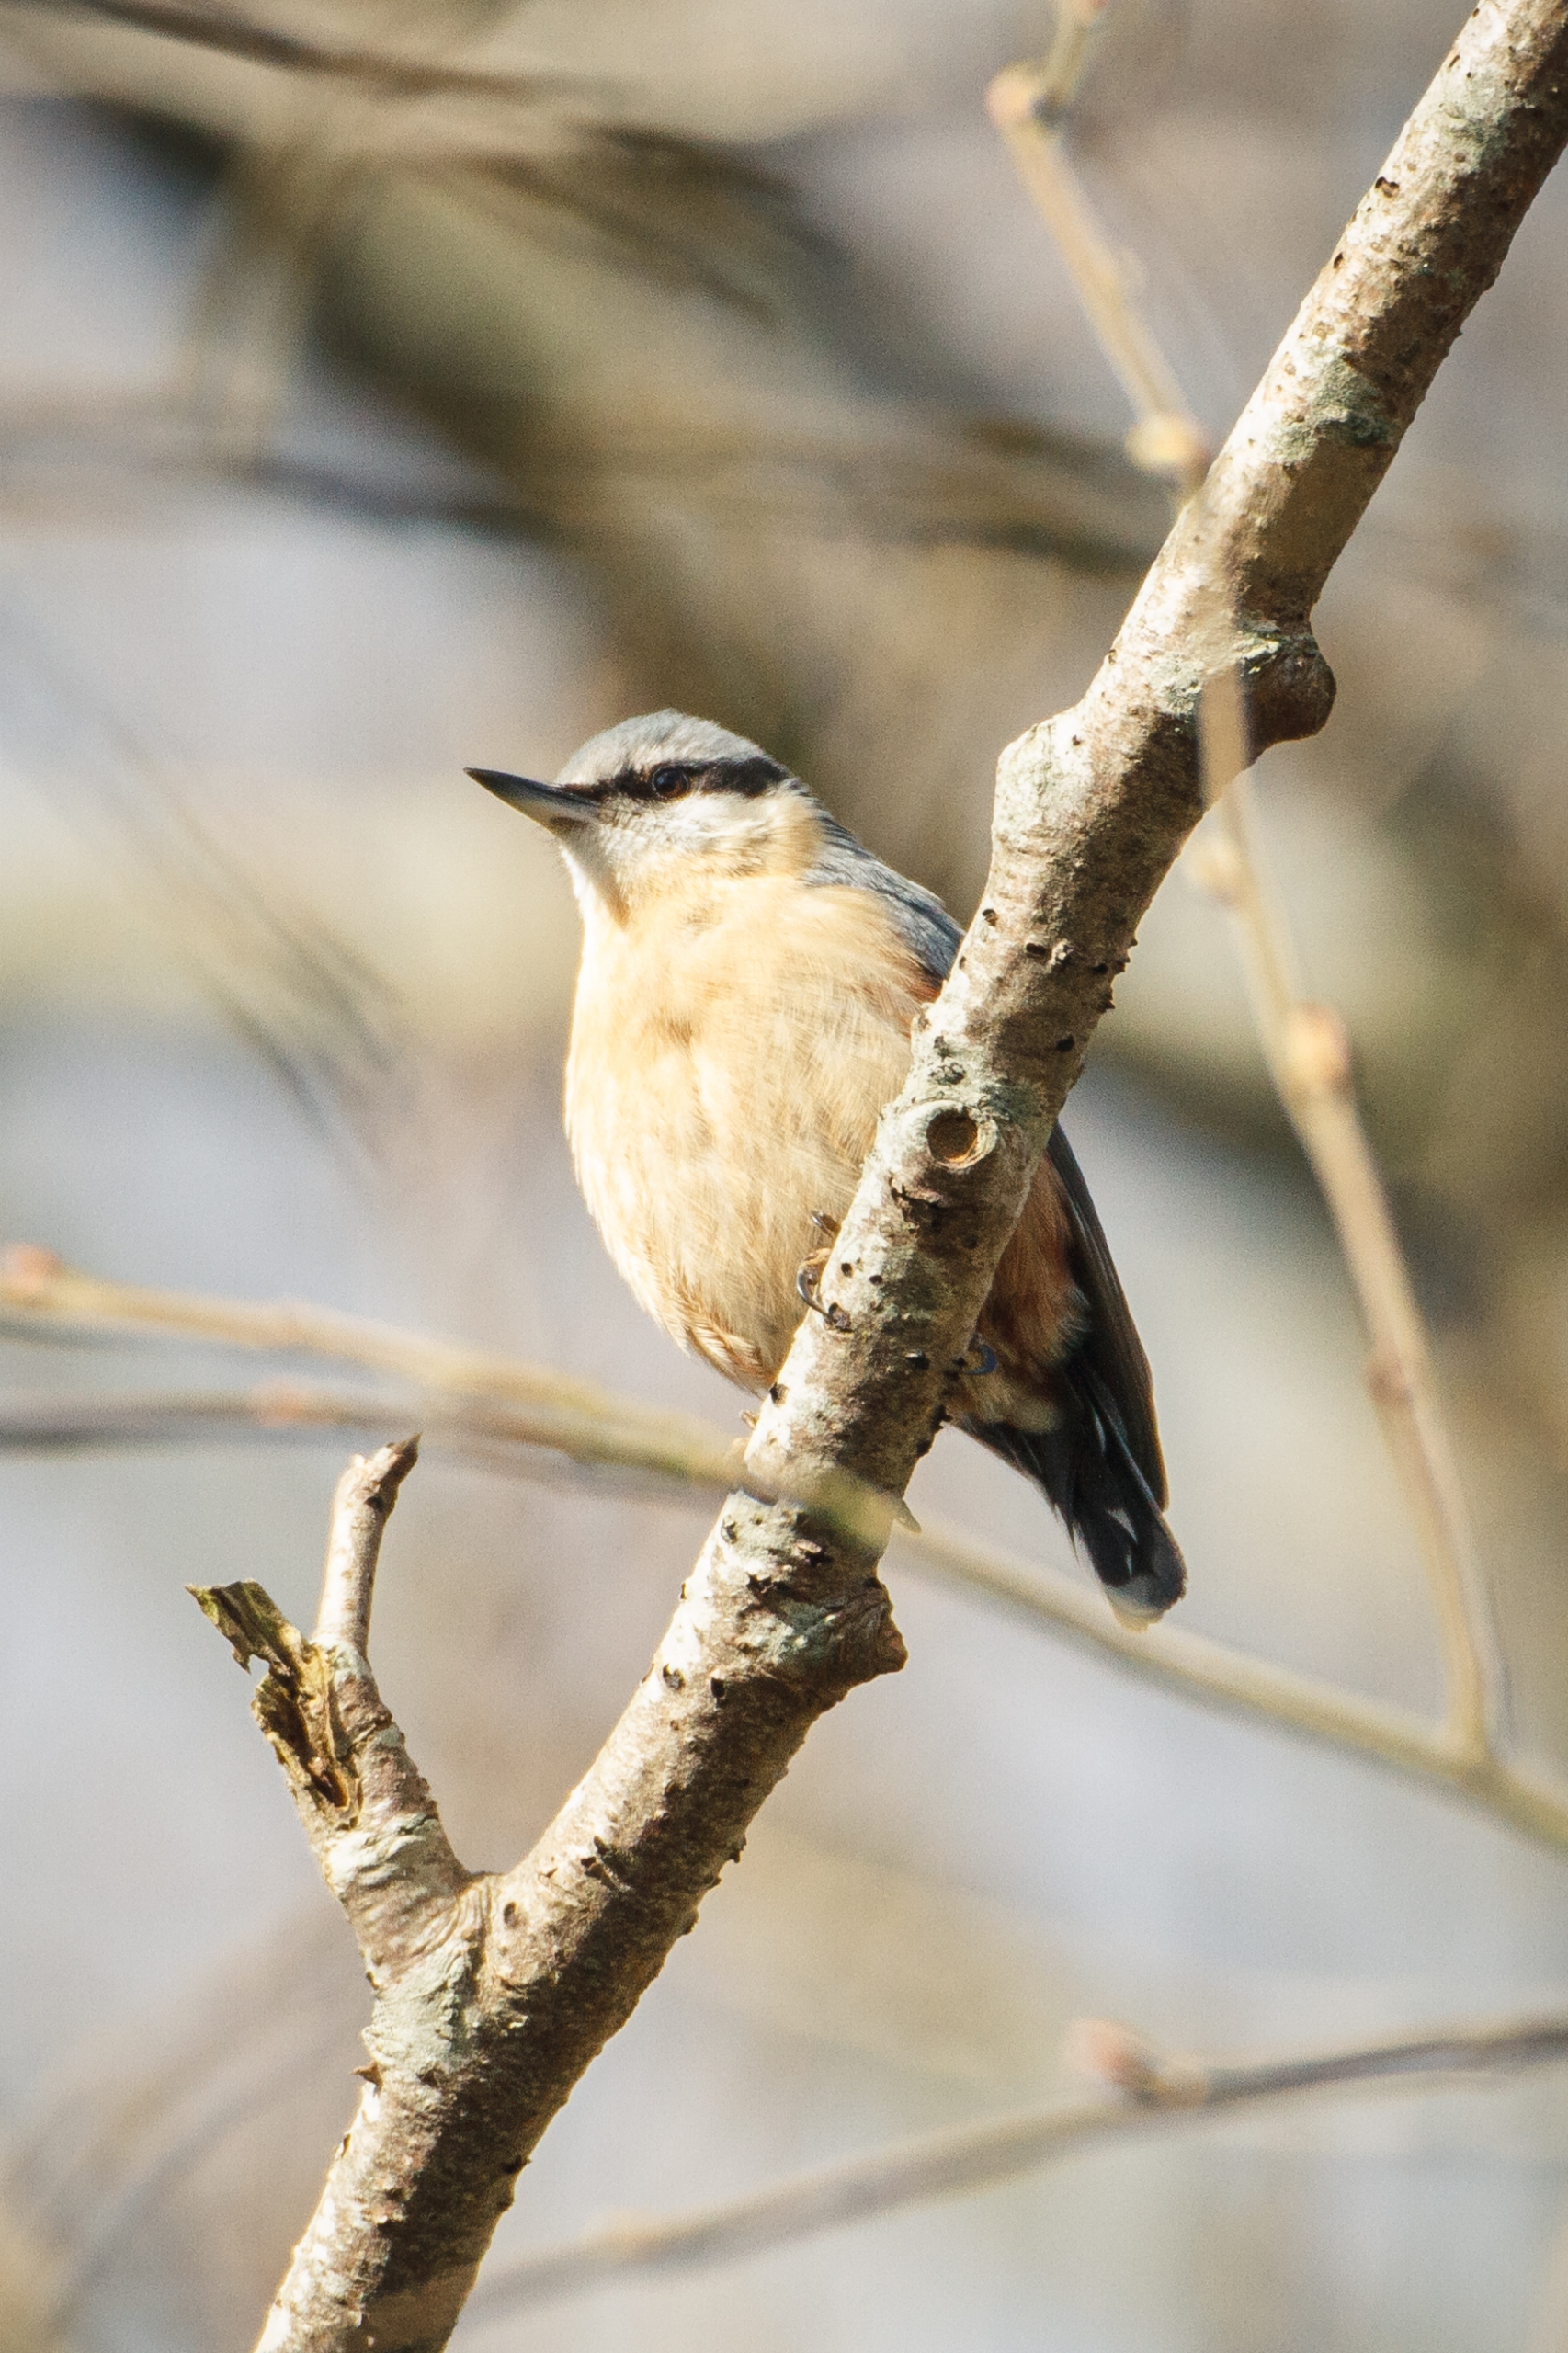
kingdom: Animalia
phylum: Chordata
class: Aves
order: Passeriformes
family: Sittidae
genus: Sitta
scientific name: Sitta europaea
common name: Spætmejse
